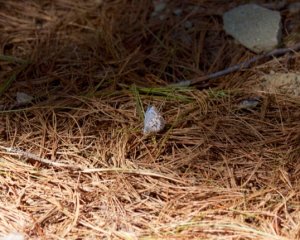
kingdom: Animalia
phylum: Arthropoda
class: Insecta
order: Lepidoptera
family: Lycaenidae
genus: Celastrina
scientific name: Celastrina lucia
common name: Northern Spring Azure
